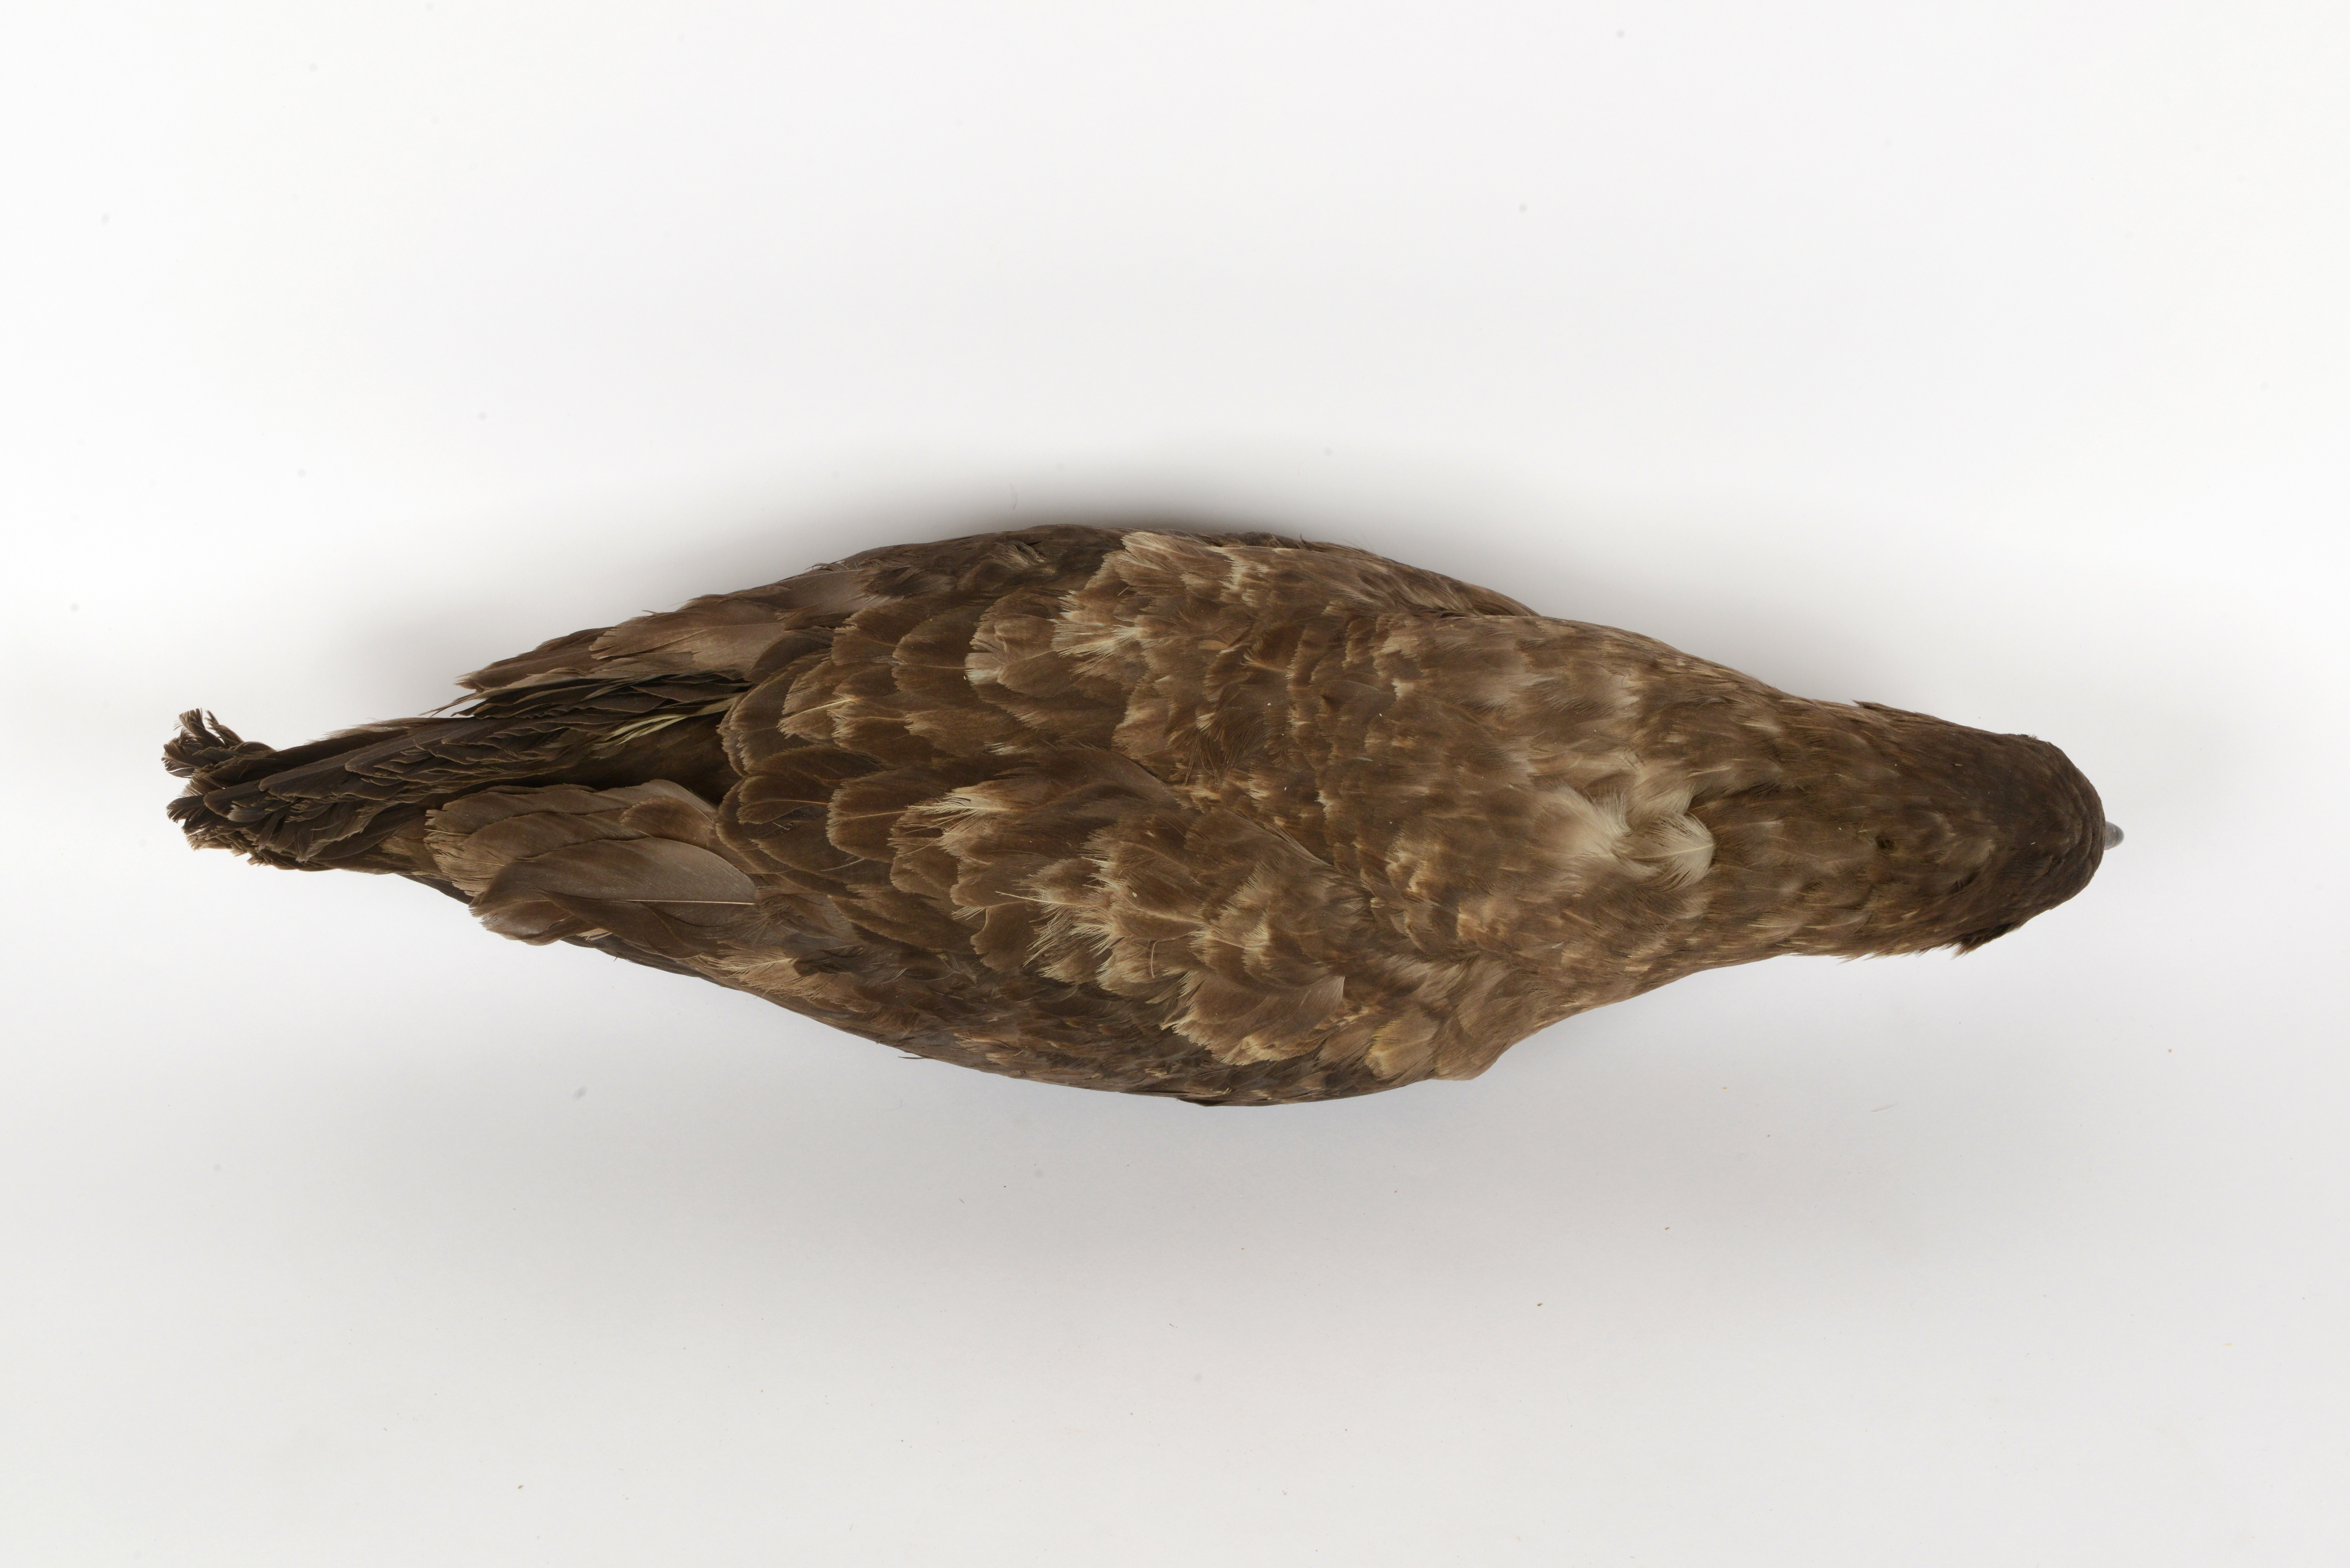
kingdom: Animalia
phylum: Chordata
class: Aves
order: Charadriiformes
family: Stercorariidae
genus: Stercorarius
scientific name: Stercorarius antarcticus
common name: Brown skua
